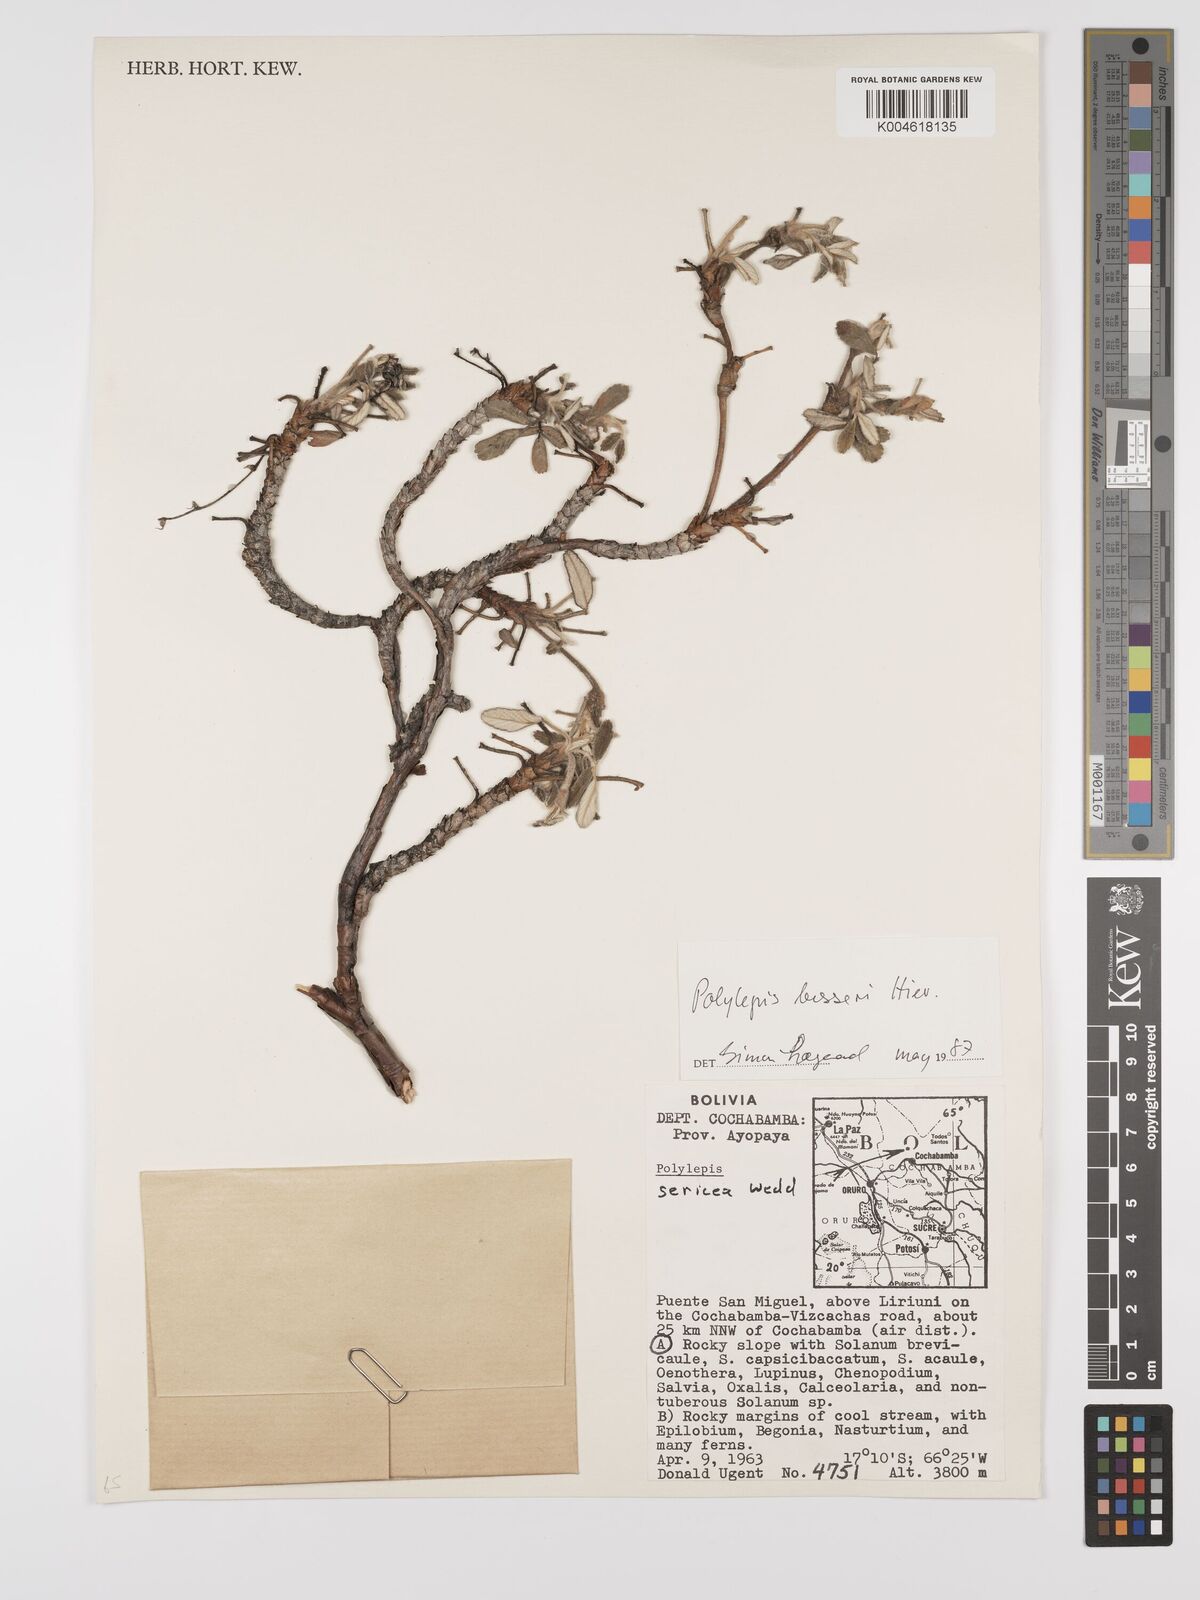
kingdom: Plantae
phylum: Tracheophyta
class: Magnoliopsida
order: Rosales
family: Rosaceae
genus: Polylepis
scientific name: Polylepis
